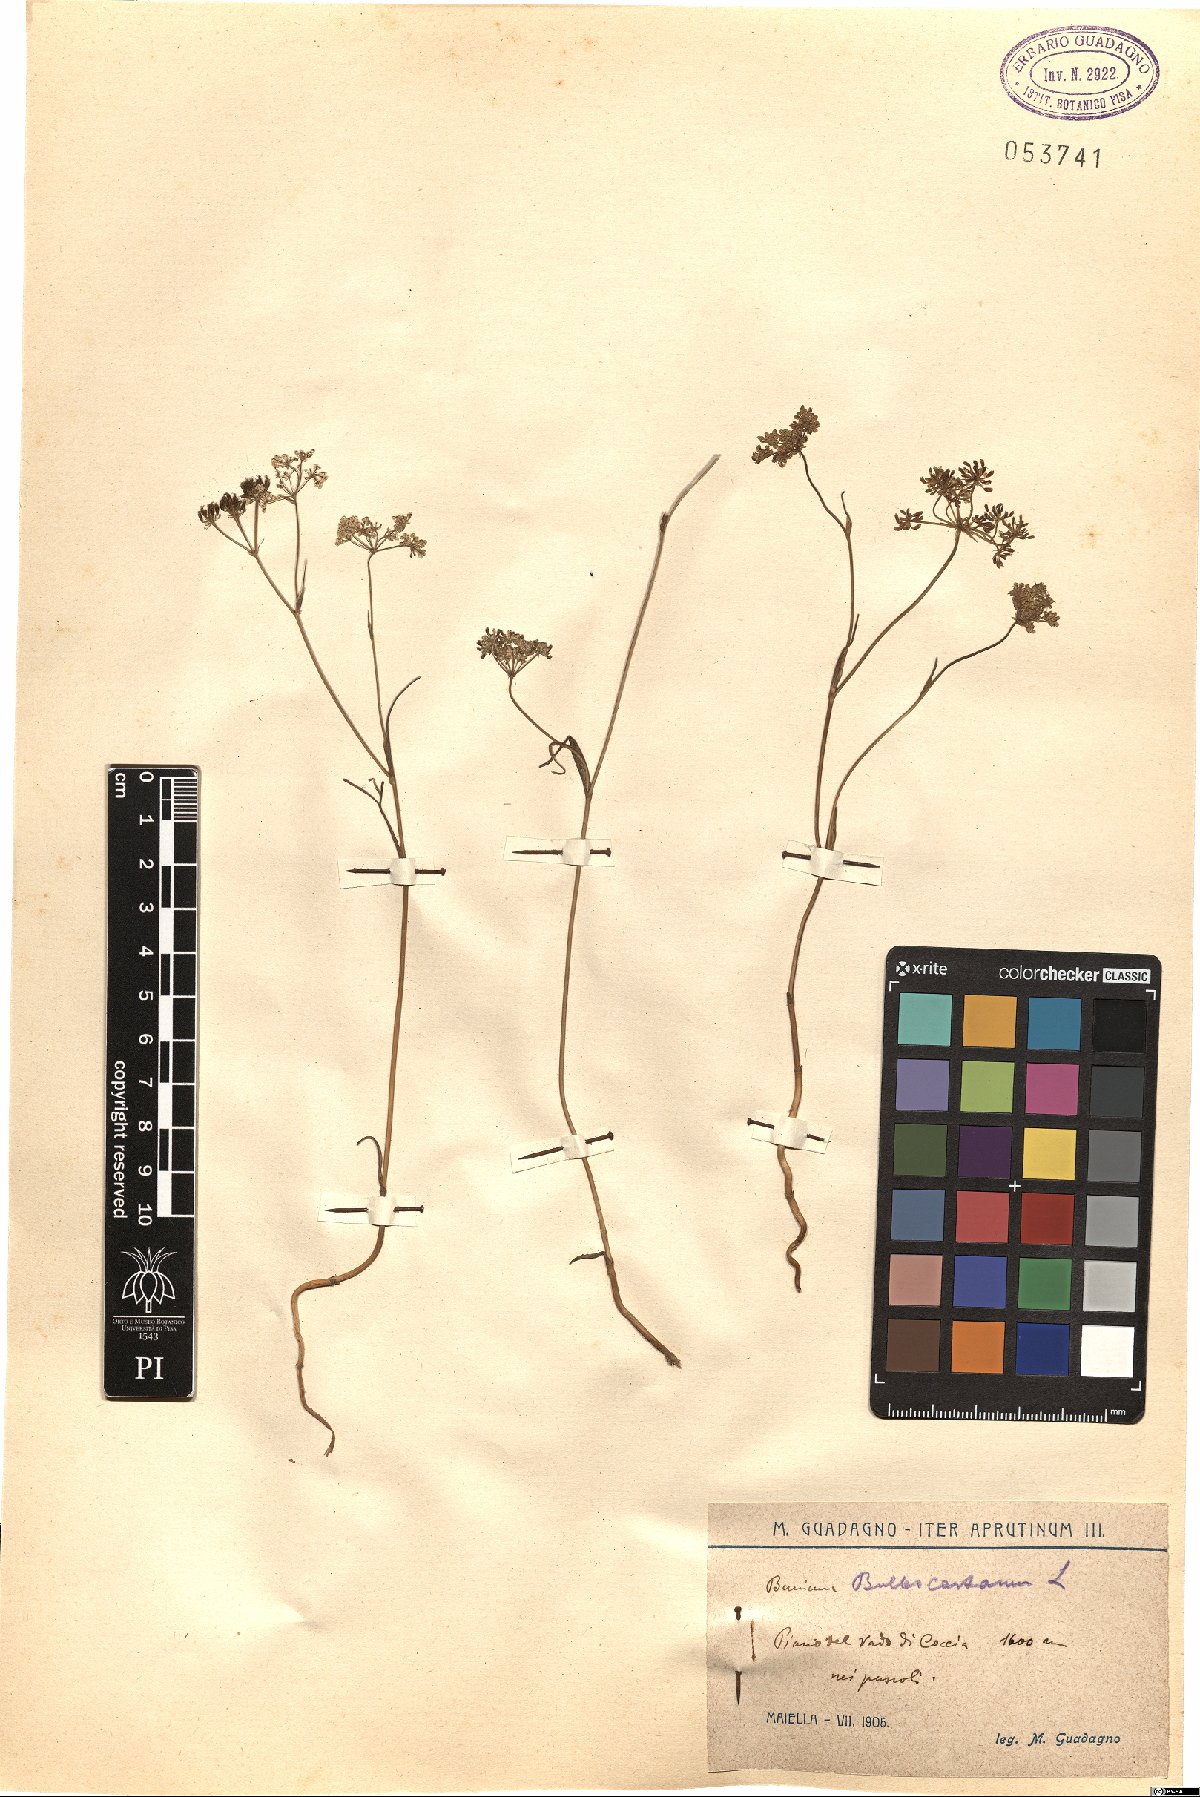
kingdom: Plantae
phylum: Tracheophyta
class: Magnoliopsida
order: Apiales
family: Apiaceae
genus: Bunium
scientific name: Bunium bulbocastanum
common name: Great pignut
